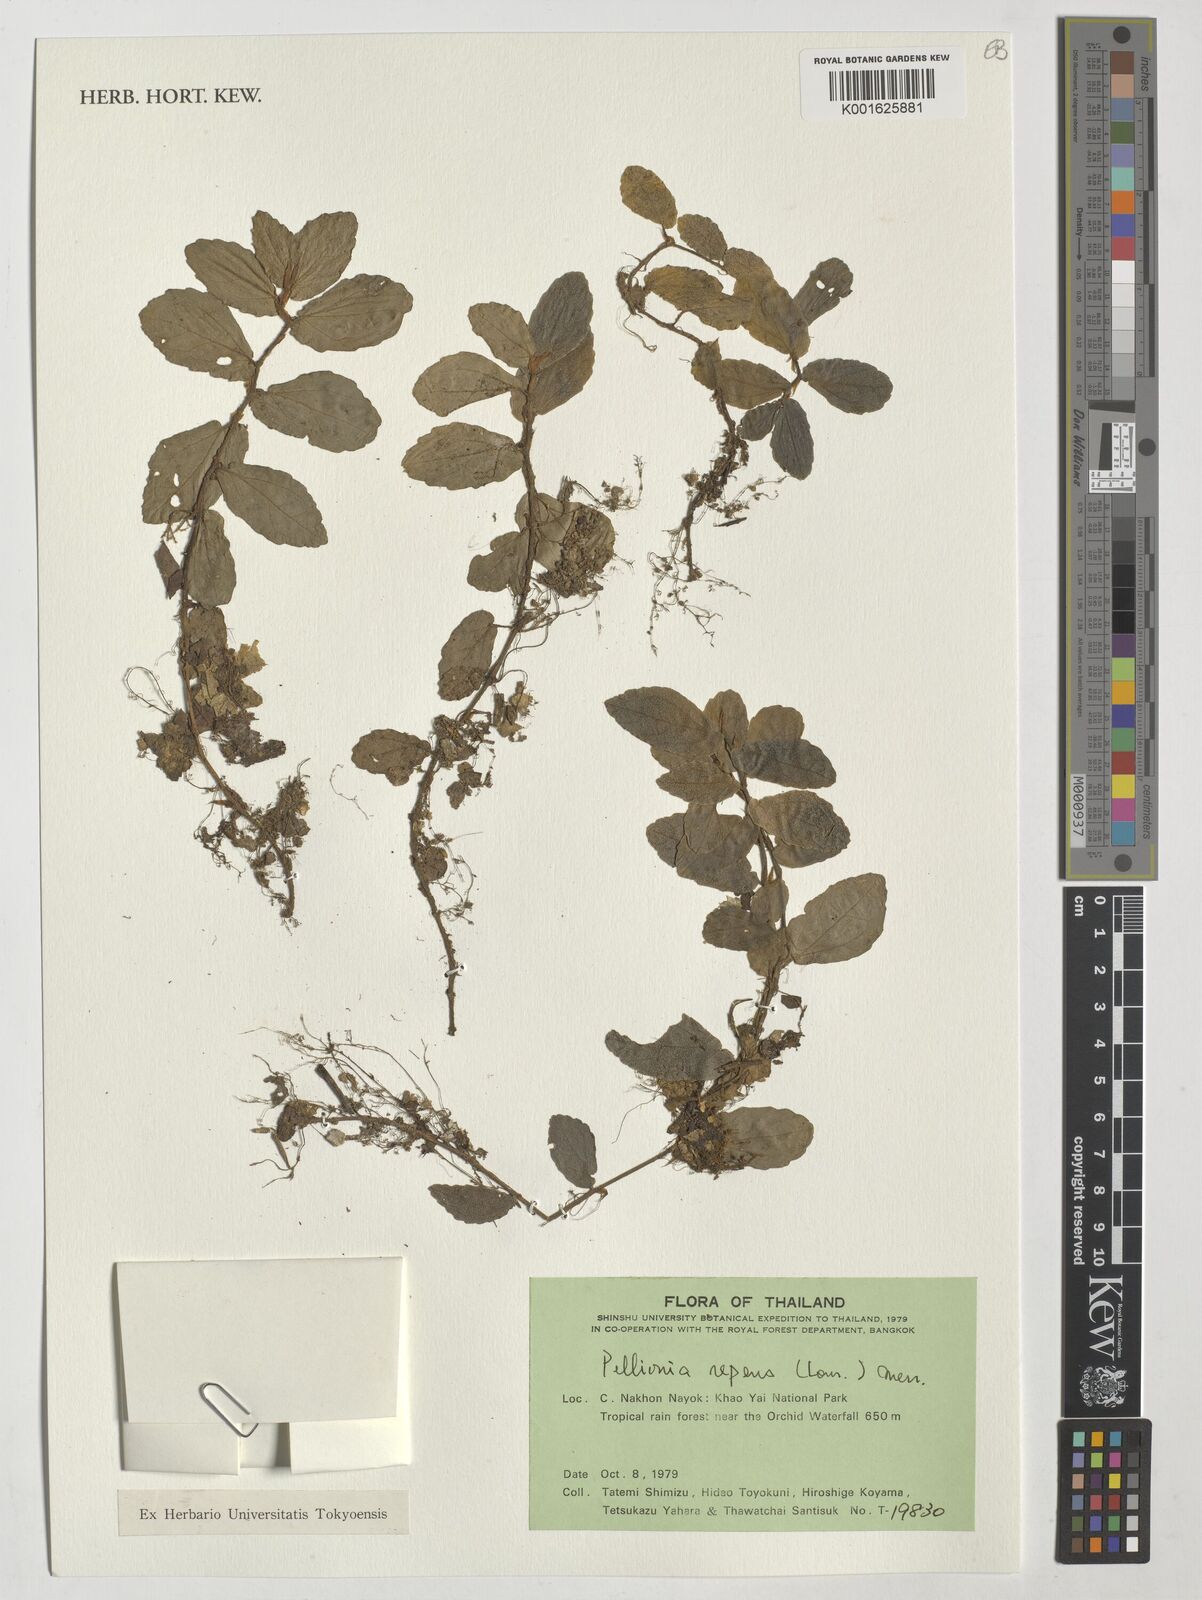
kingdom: Plantae
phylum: Tracheophyta
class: Magnoliopsida
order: Rosales
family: Urticaceae
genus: Procris
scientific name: Procris repens
